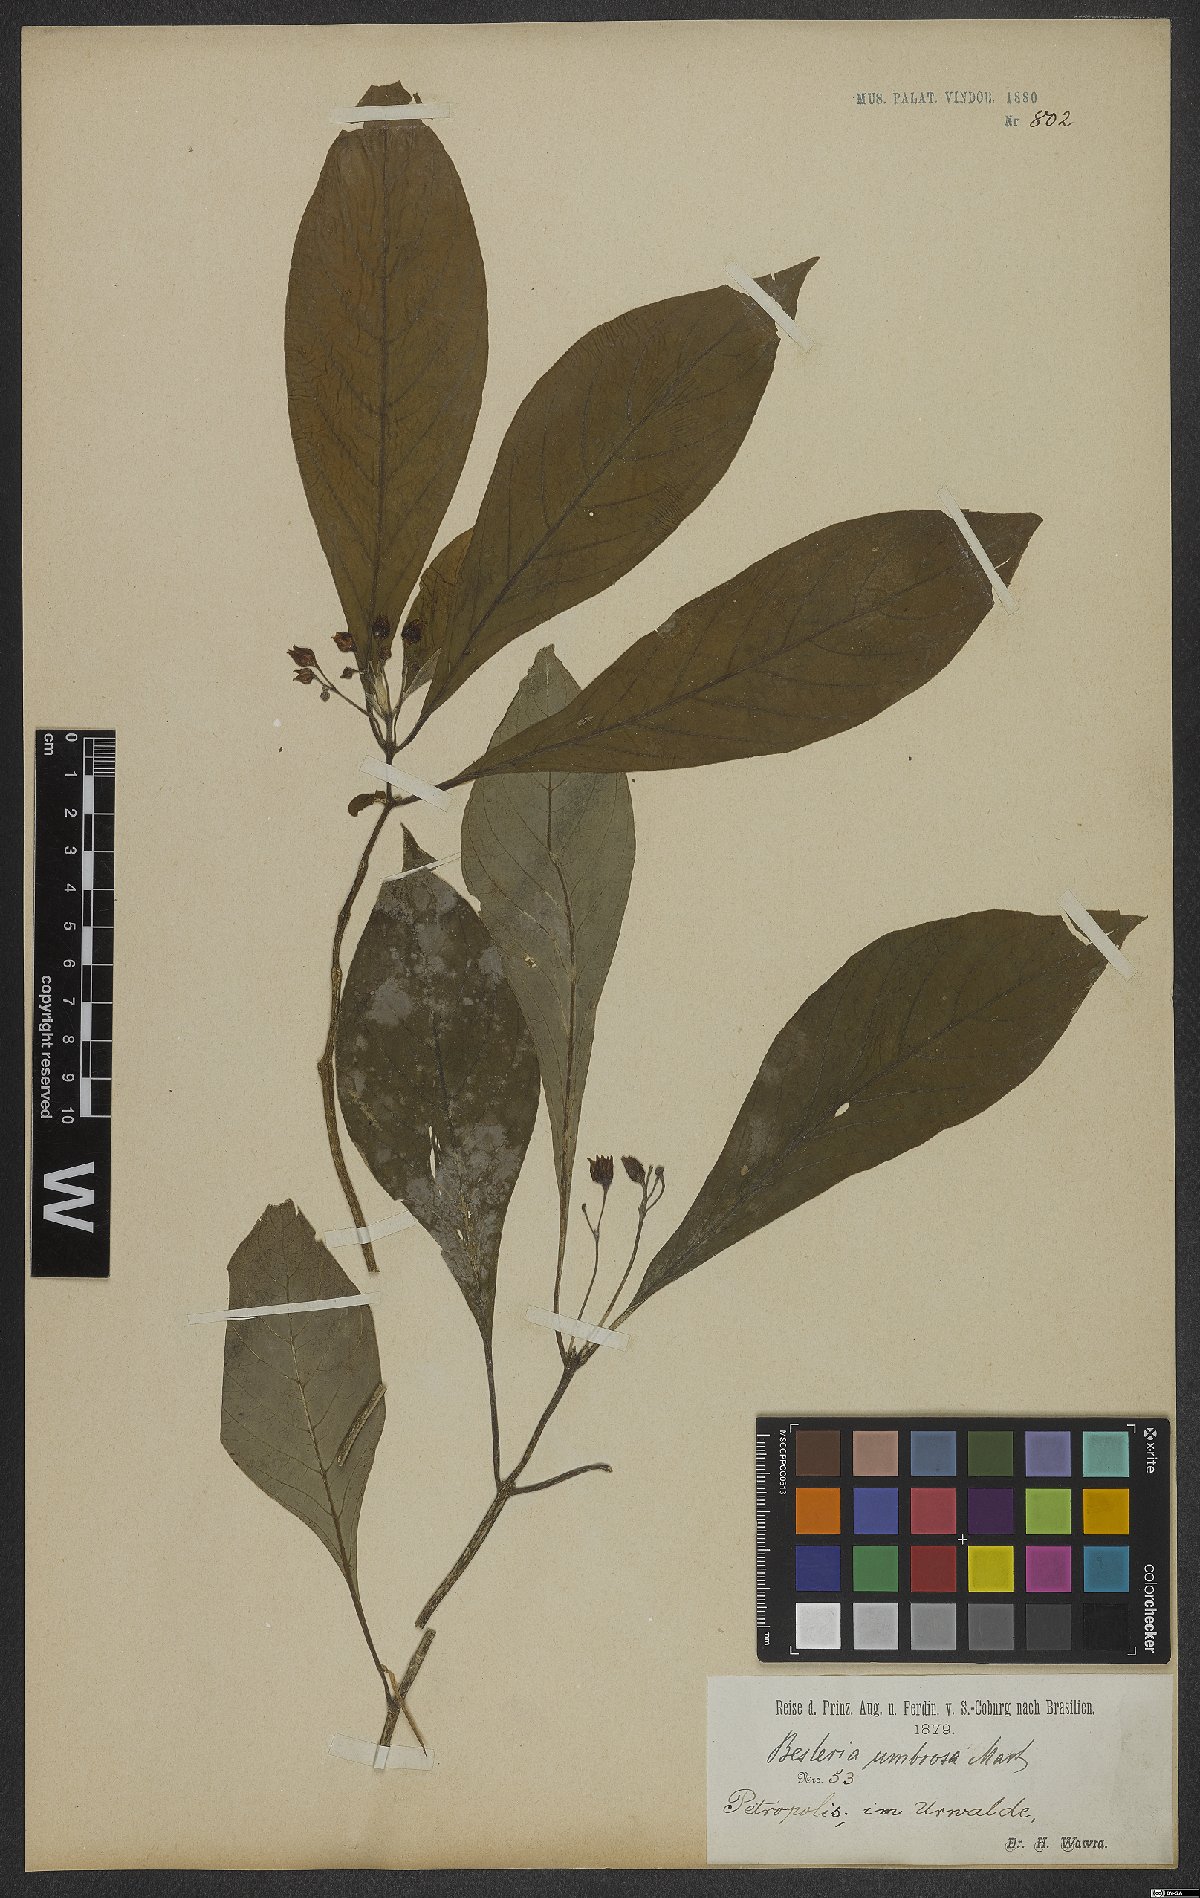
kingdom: Plantae
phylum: Tracheophyta
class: Magnoliopsida
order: Lamiales
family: Gesneriaceae
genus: Besleria
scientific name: Besleria umbrosa
